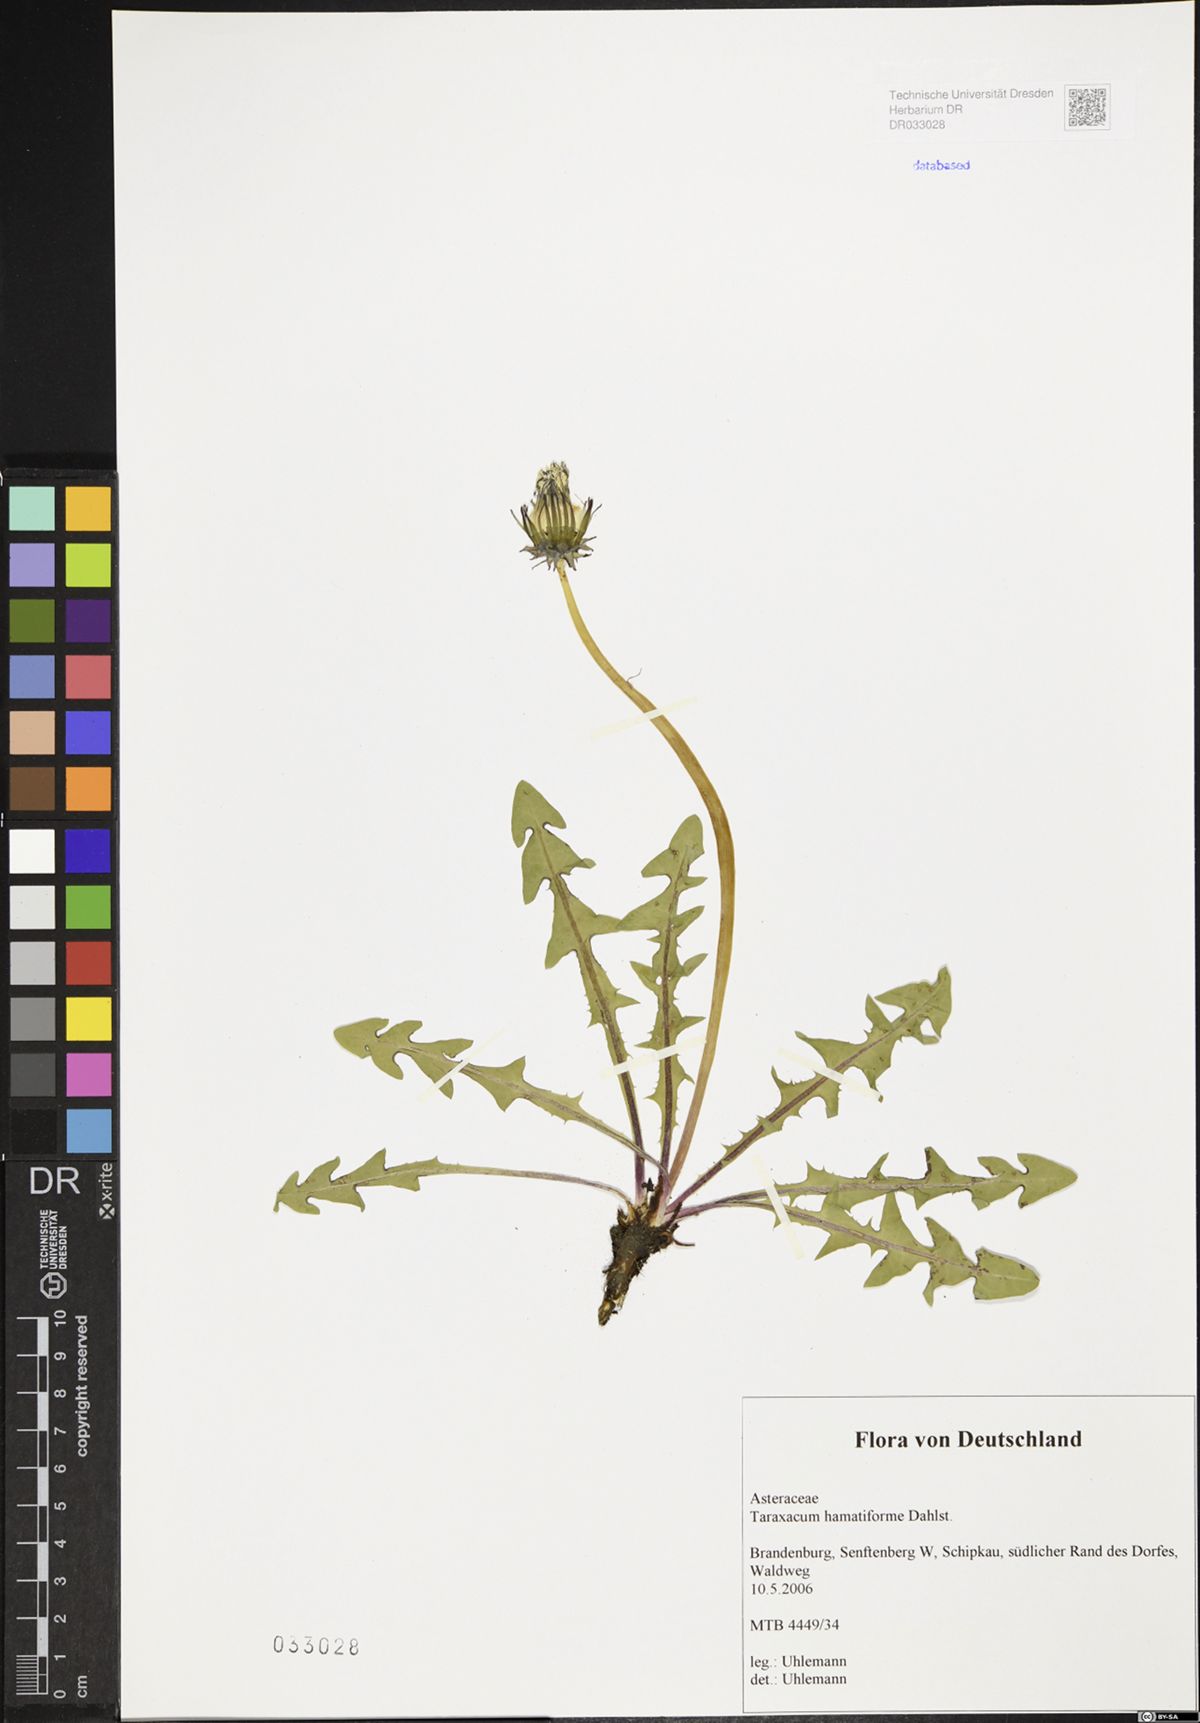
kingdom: Plantae
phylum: Tracheophyta
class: Magnoliopsida
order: Asterales
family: Asteraceae
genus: Taraxacum
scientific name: Taraxacum hamatiforme
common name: Asymmetrical hook-lobed dandelion
